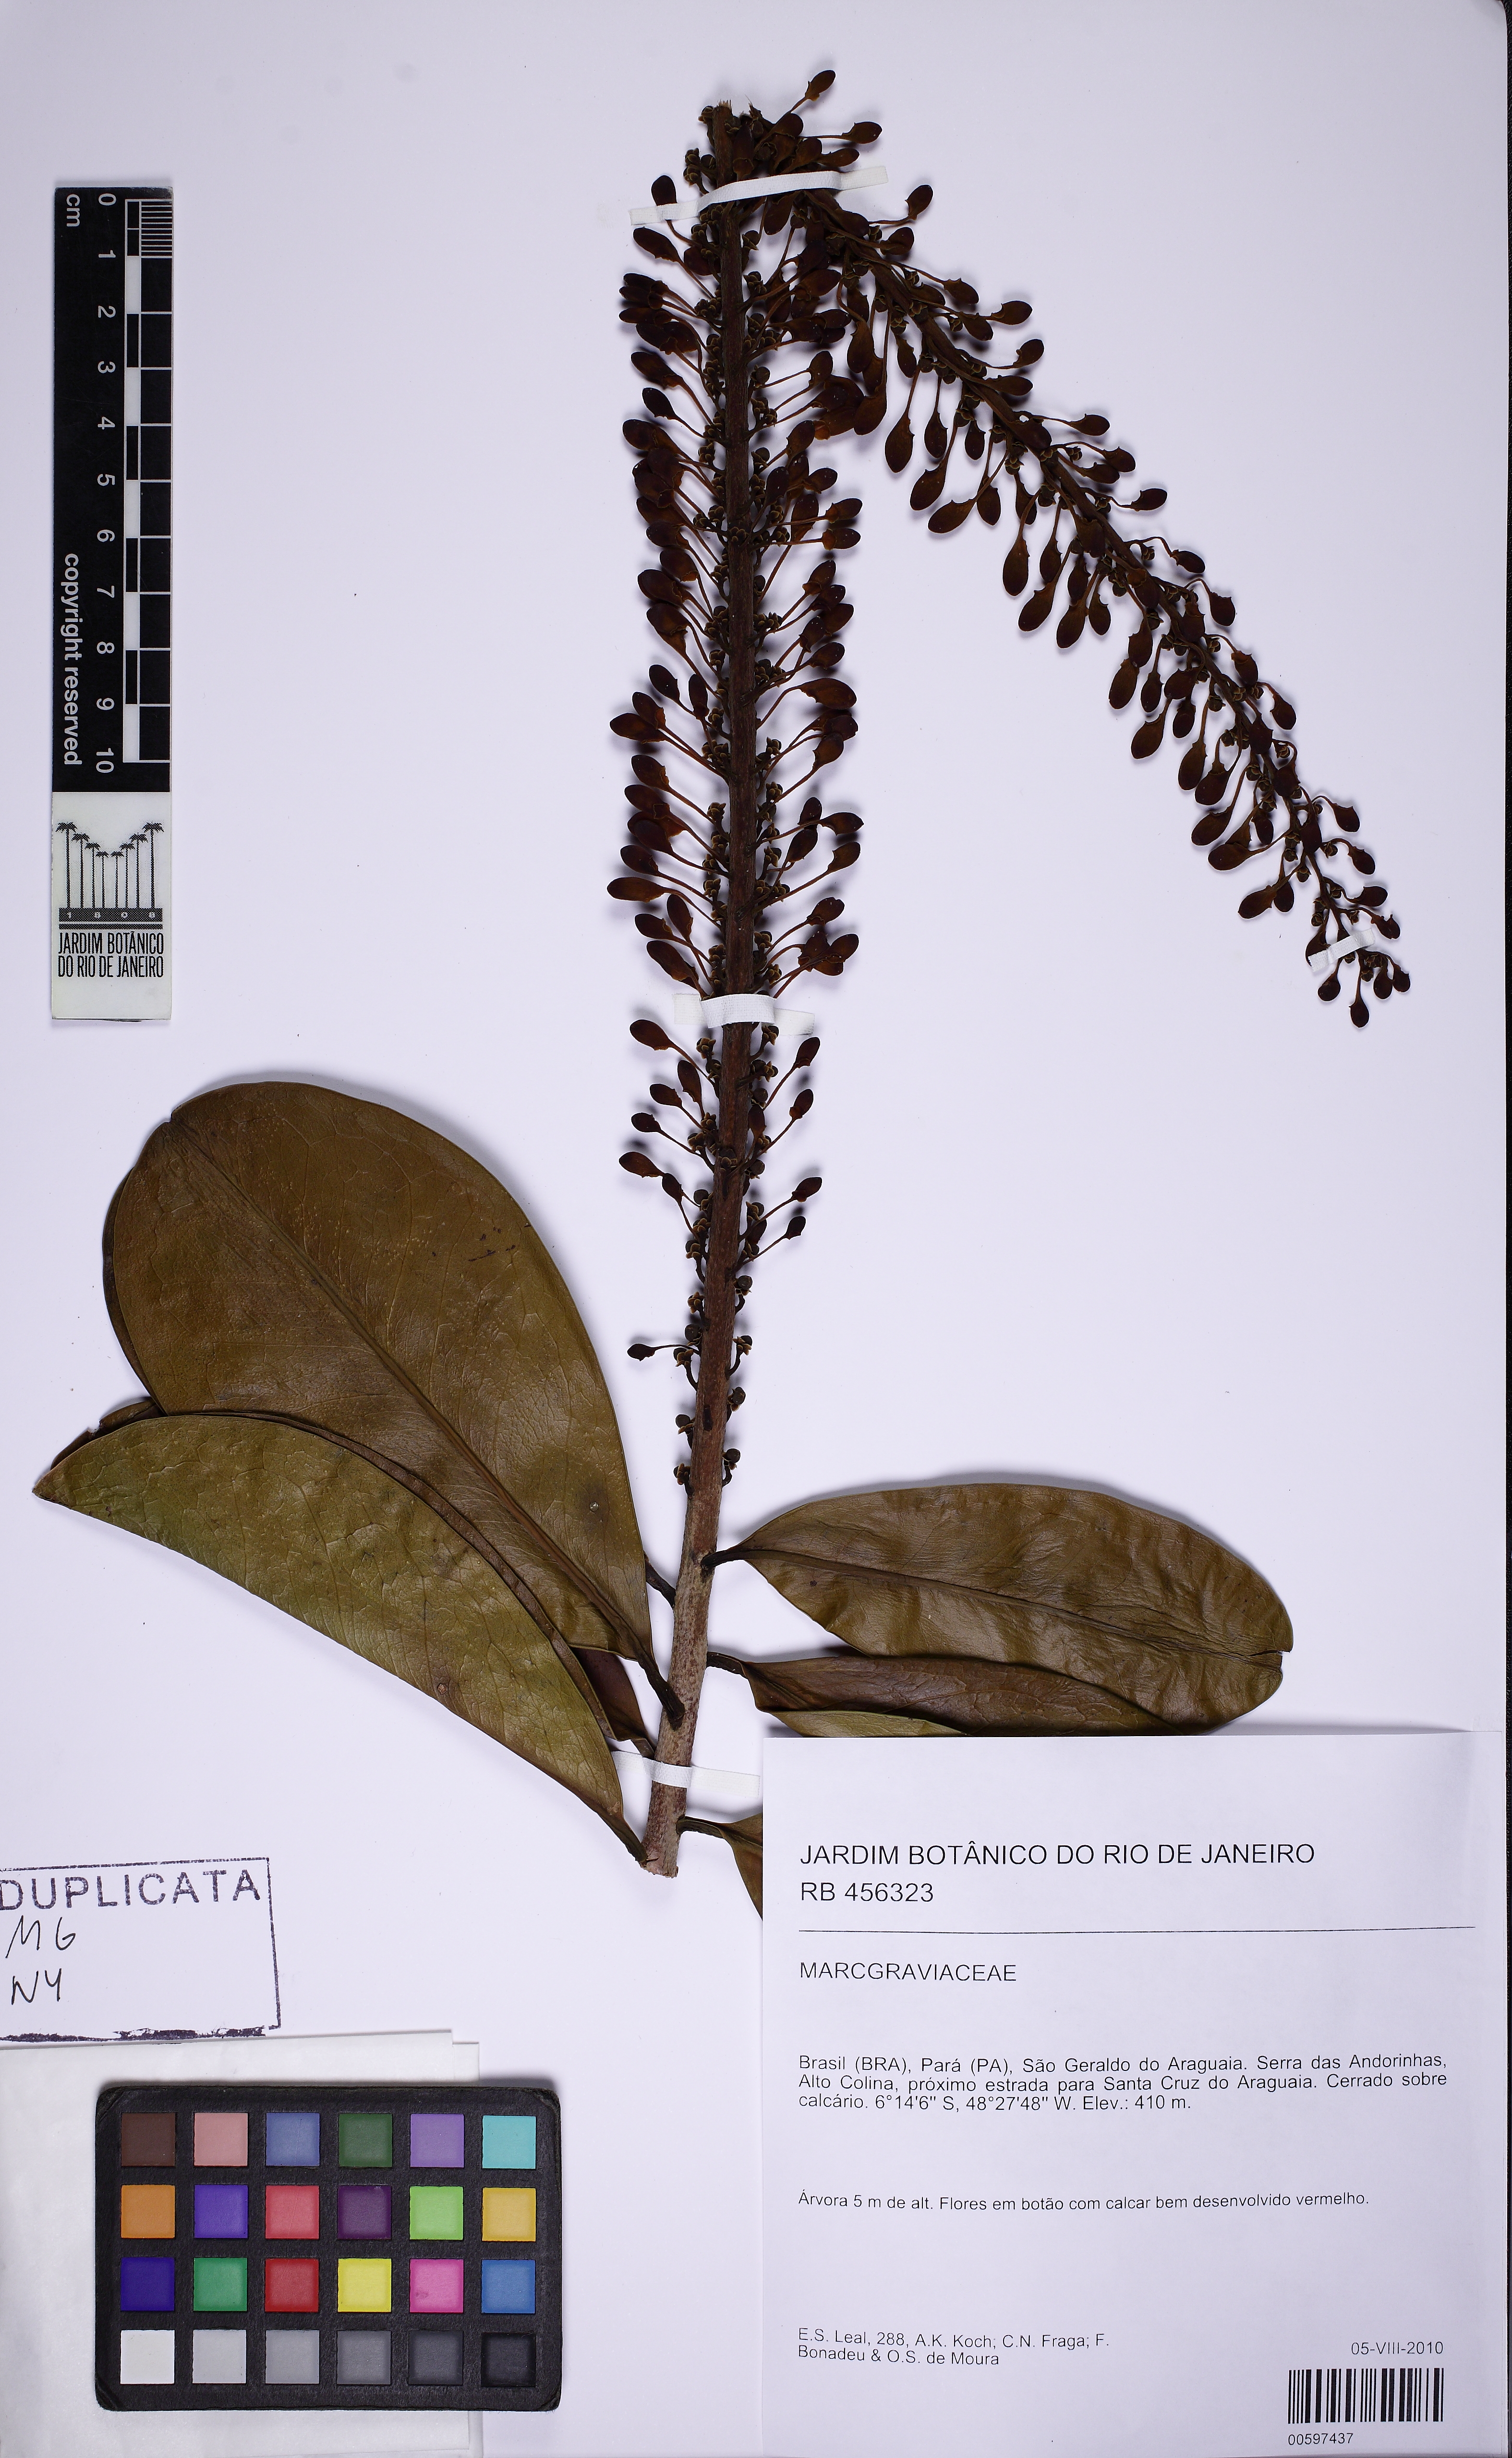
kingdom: Plantae
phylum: Tracheophyta
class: Magnoliopsida
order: Ericales
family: Marcgraviaceae
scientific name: Marcgraviaceae
